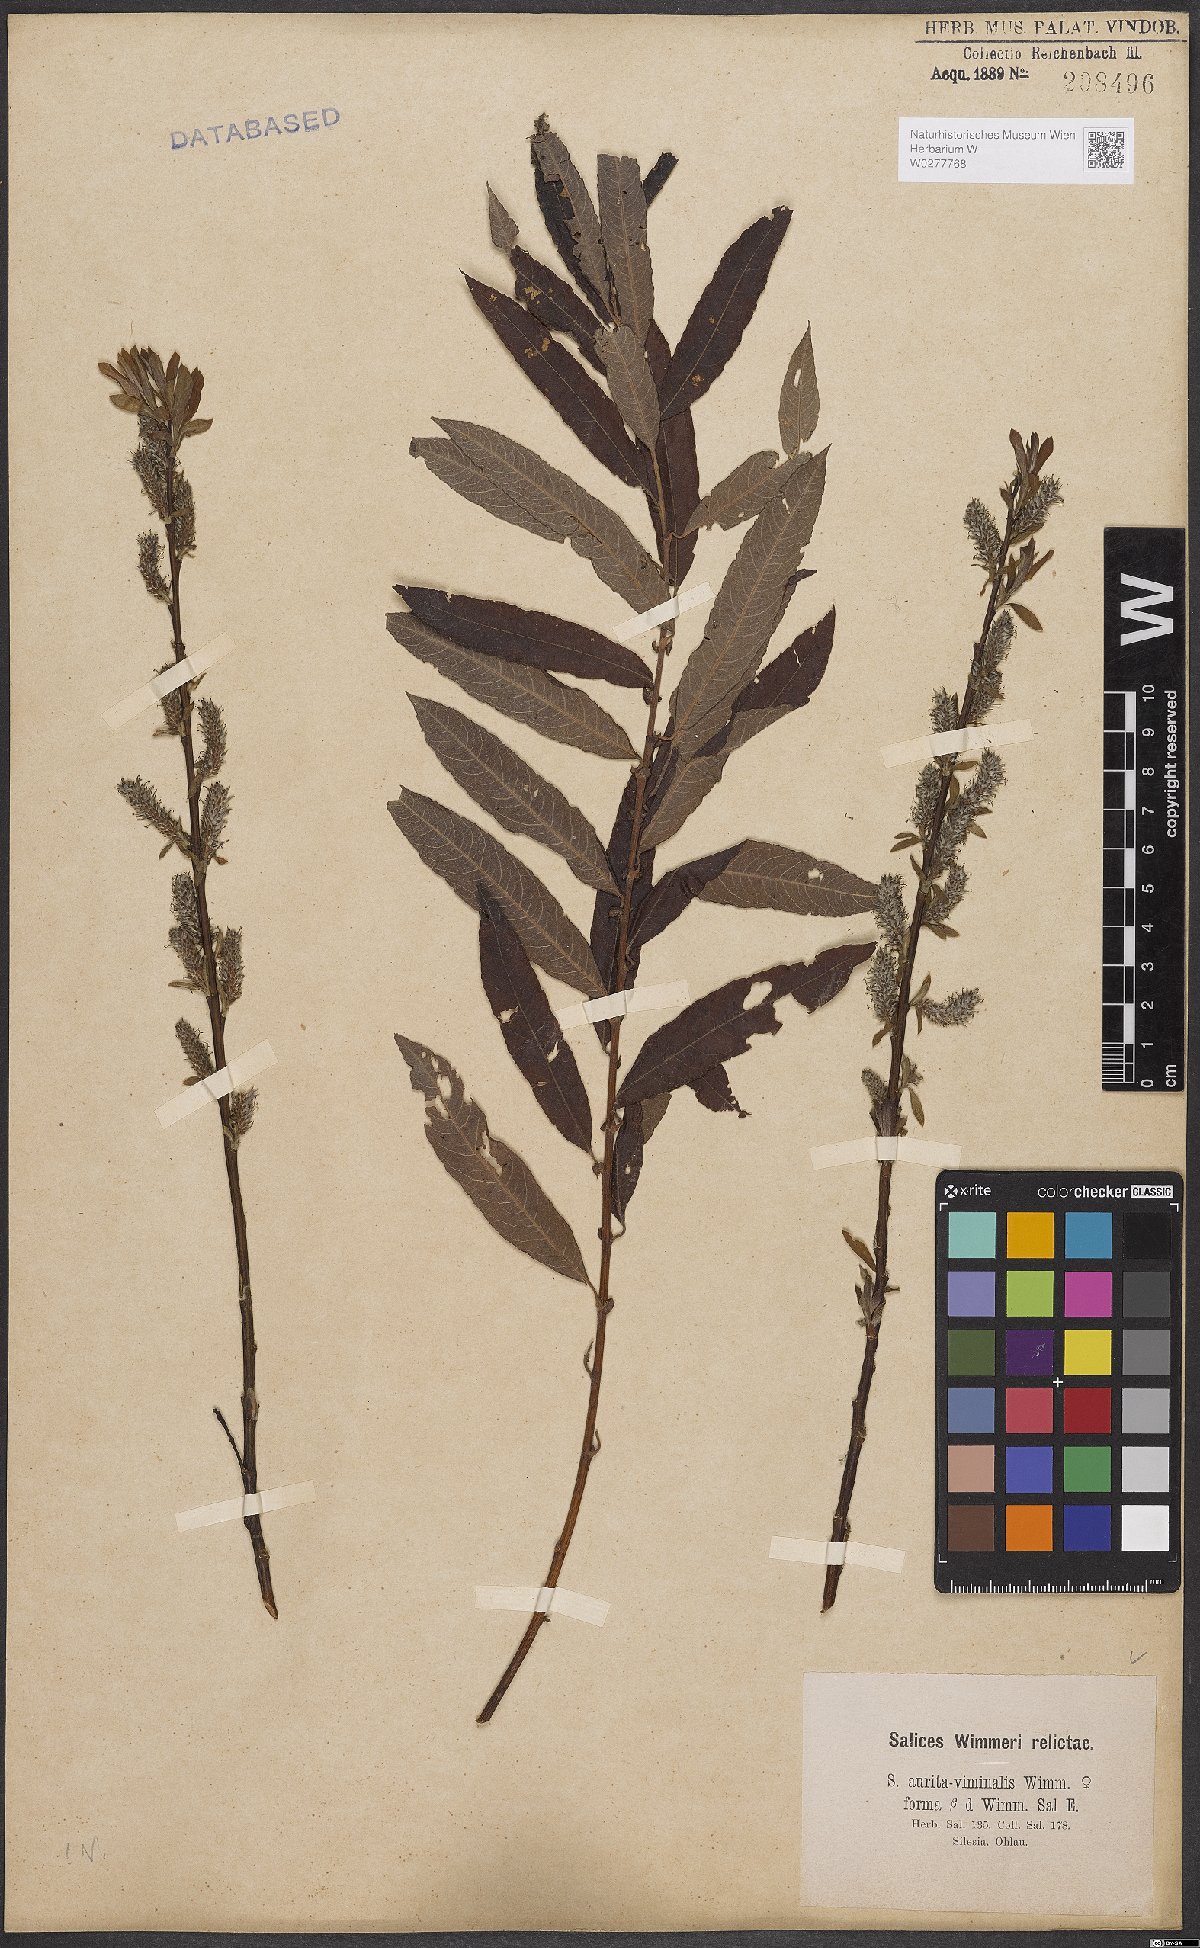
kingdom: Plantae
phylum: Tracheophyta
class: Magnoliopsida
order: Malpighiales
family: Salicaceae
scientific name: Salicaceae
